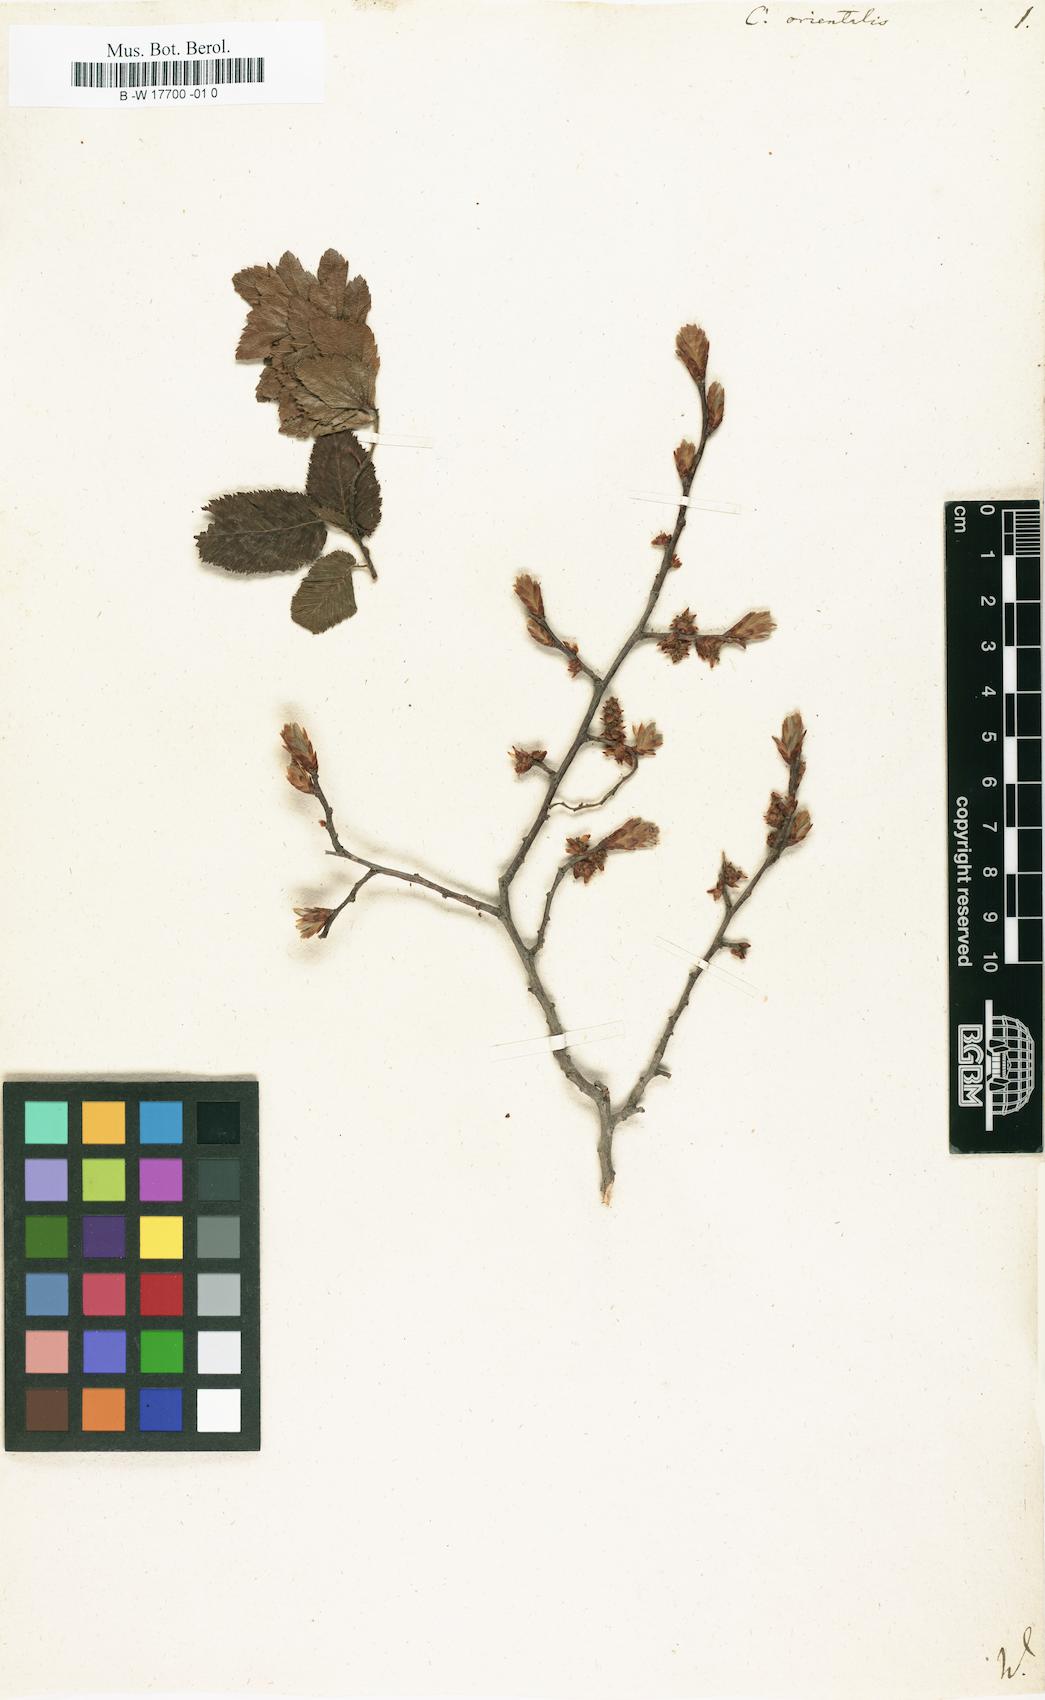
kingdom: Plantae
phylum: Tracheophyta
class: Magnoliopsida
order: Fagales
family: Betulaceae
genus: Carpinus
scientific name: Carpinus orientalis
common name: Eastern hornbeam
